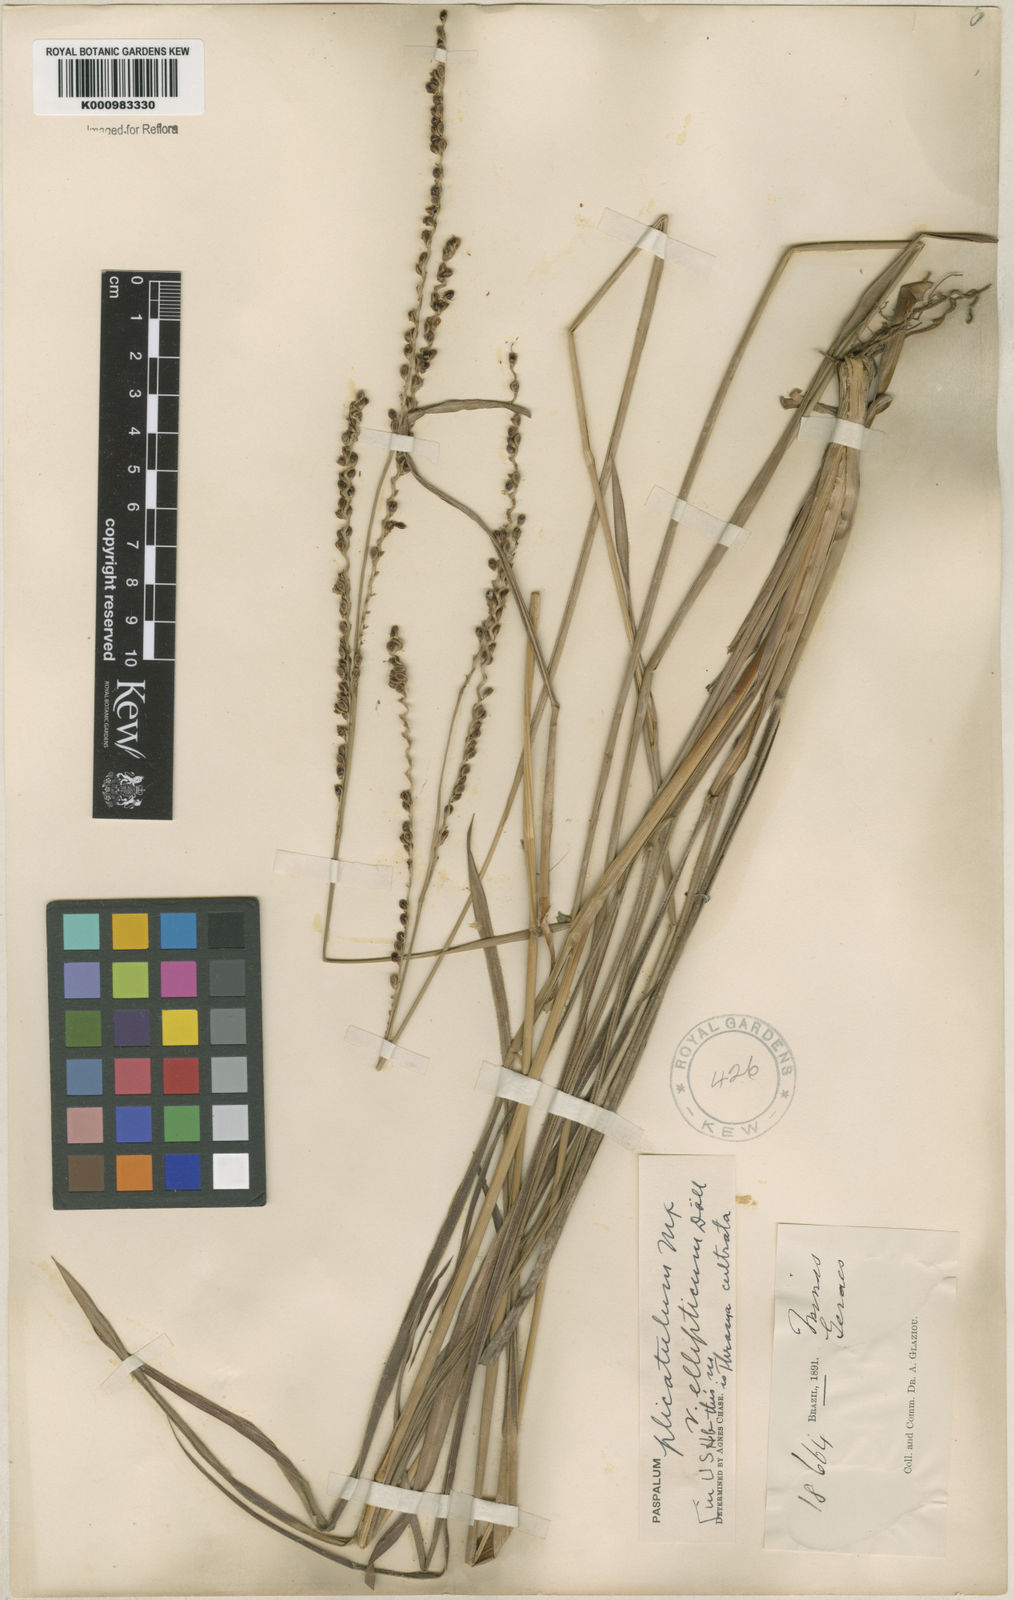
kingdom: Plantae
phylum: Tracheophyta
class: Liliopsida
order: Poales
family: Poaceae
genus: Paspalum
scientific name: Paspalum plicatulum
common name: Top paspalum
